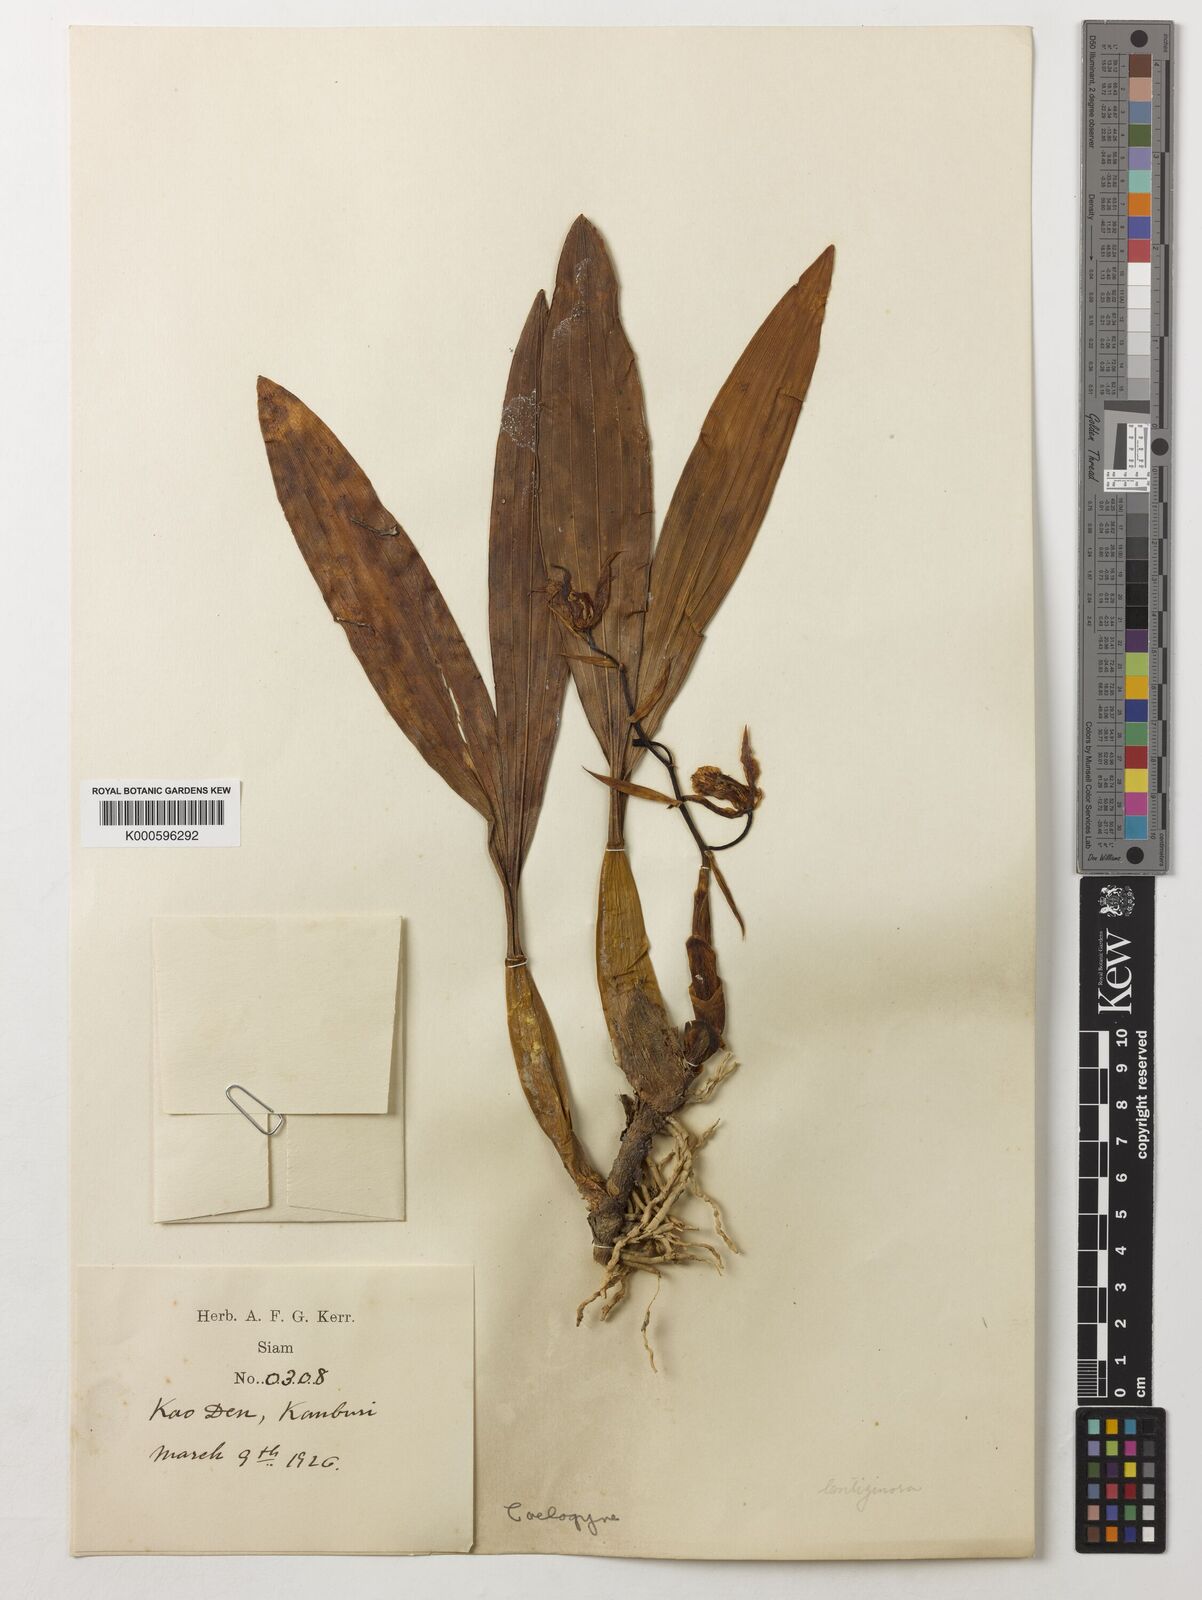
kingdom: Plantae
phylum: Tracheophyta
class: Liliopsida
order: Asparagales
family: Orchidaceae
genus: Coelogyne
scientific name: Coelogyne lentiginosa
